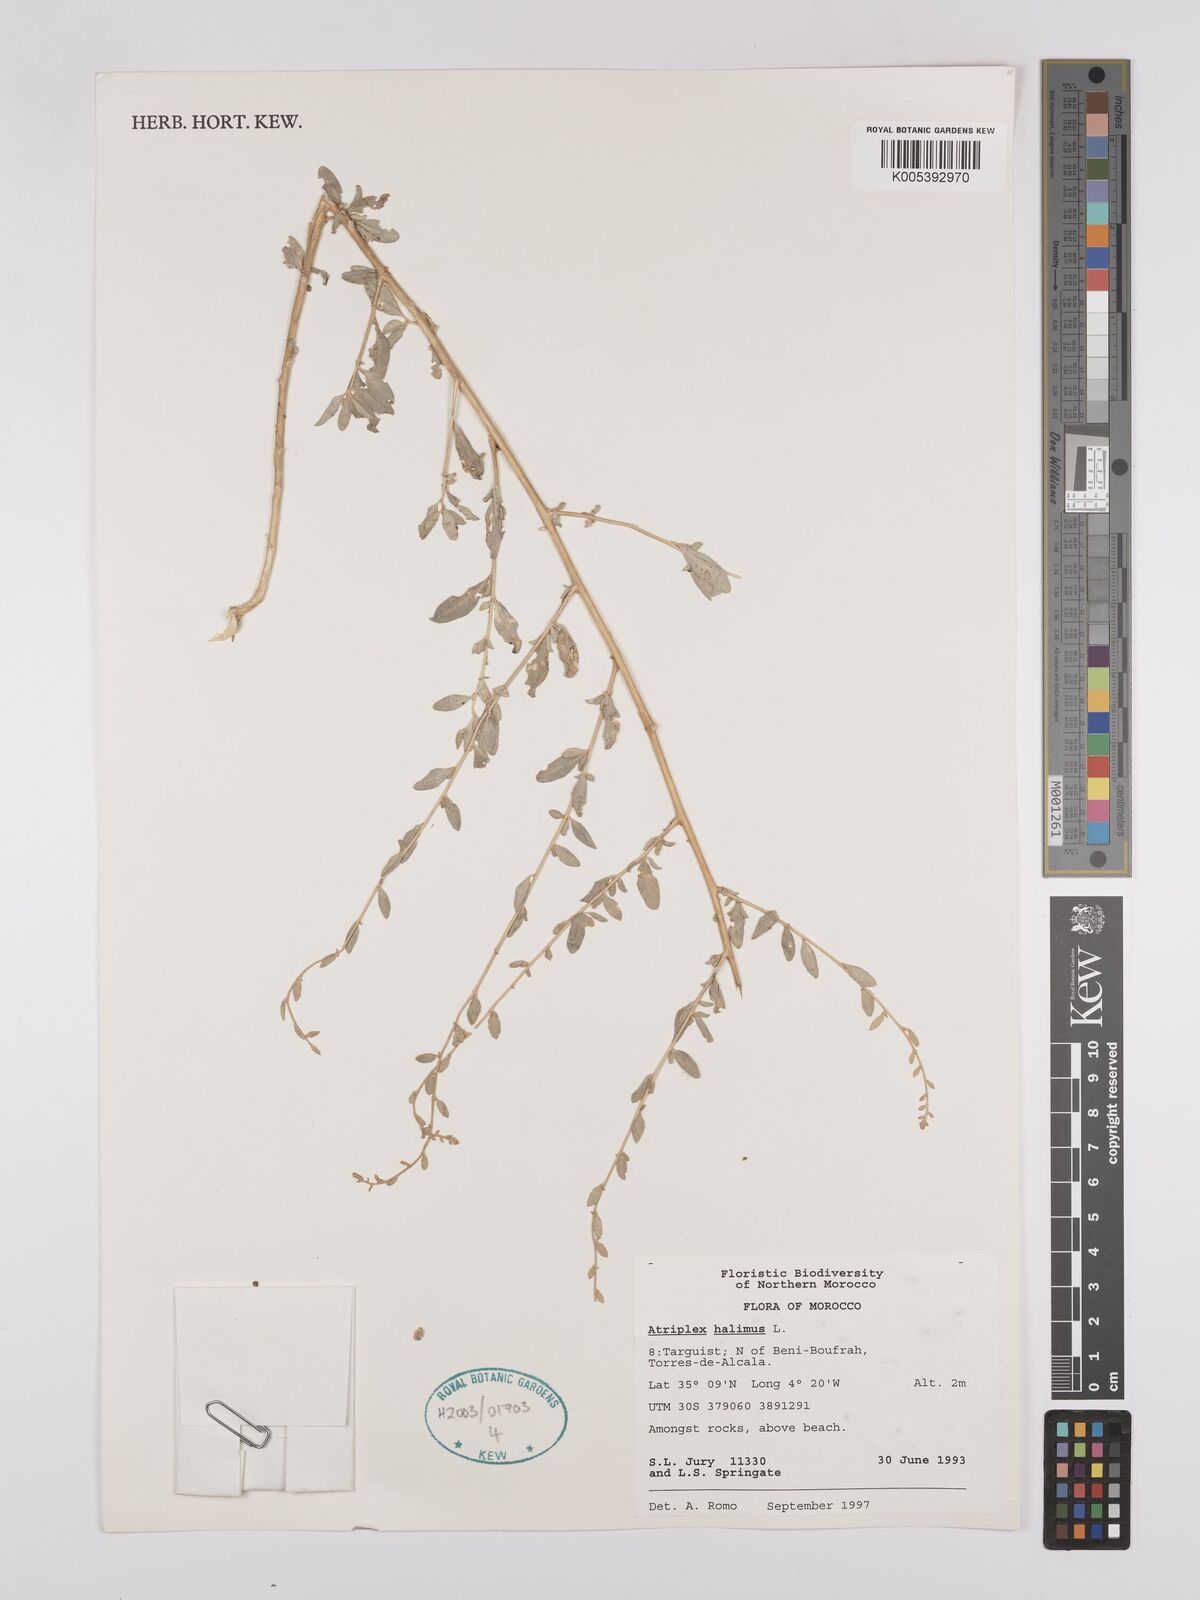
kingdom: Plantae
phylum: Tracheophyta
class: Magnoliopsida
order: Caryophyllales
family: Amaranthaceae
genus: Atriplex
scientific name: Atriplex
